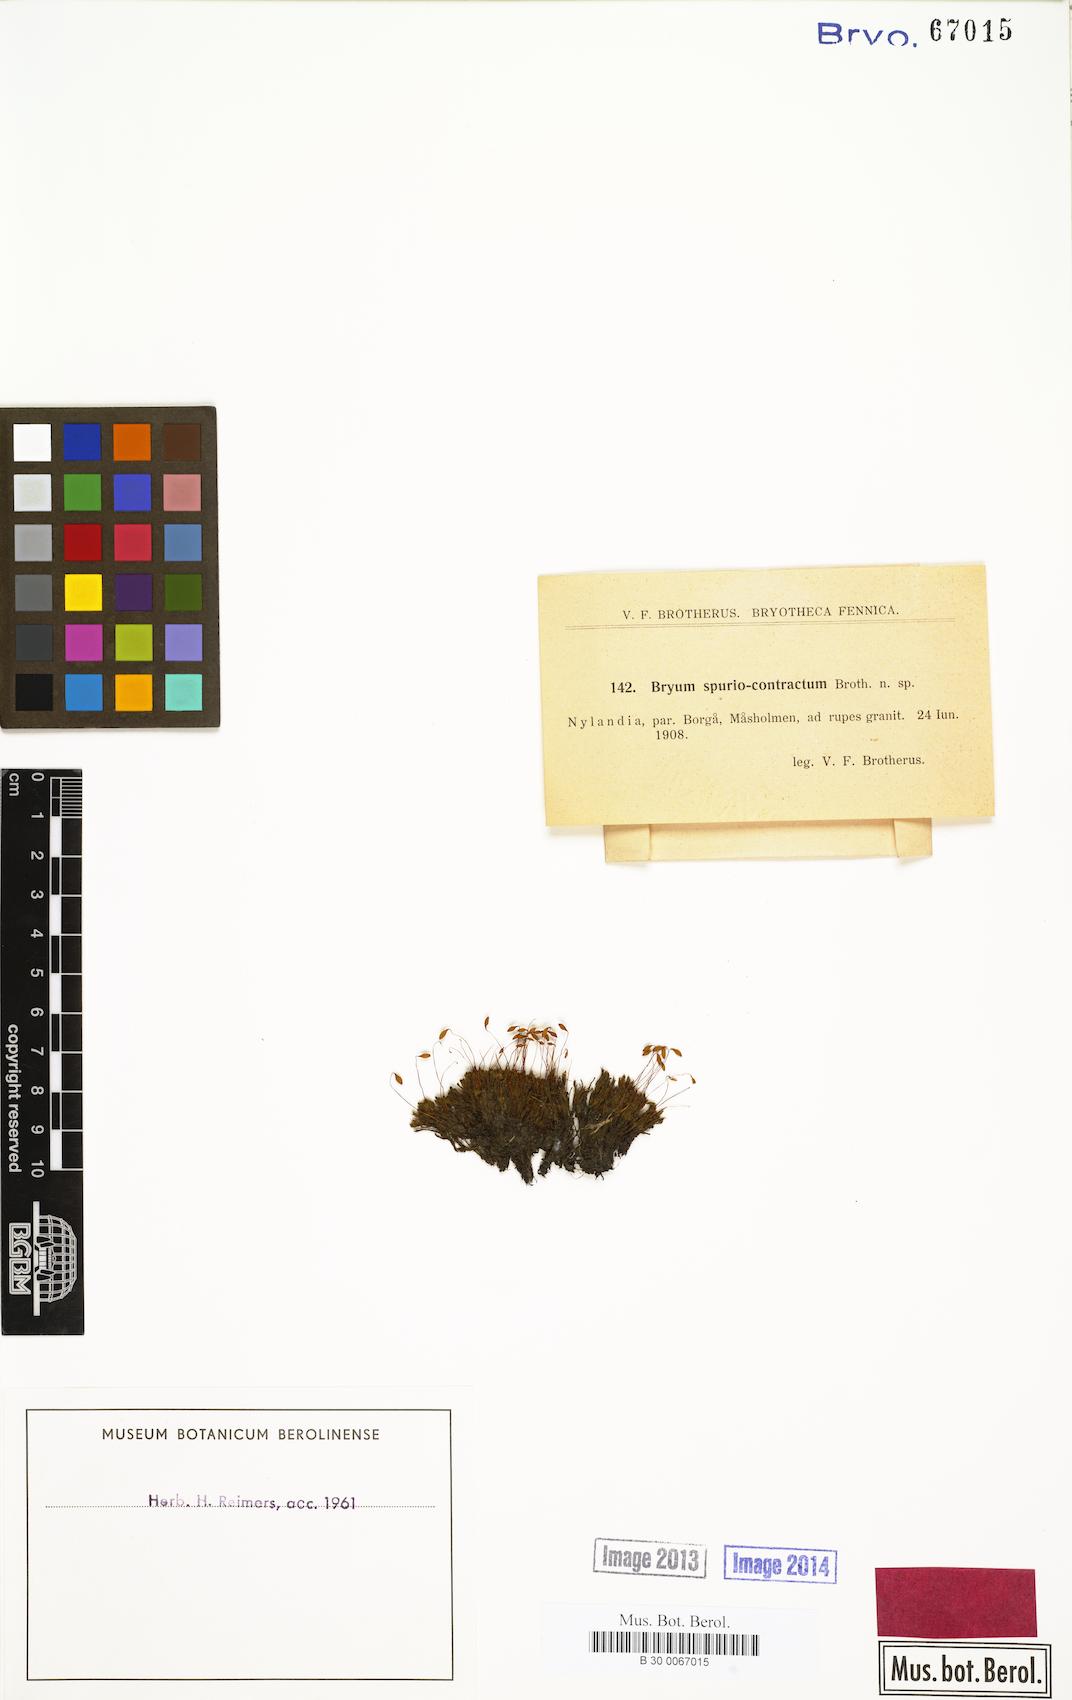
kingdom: Plantae
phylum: Bryophyta
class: Bryopsida
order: Bryales
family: Bryaceae
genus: Bryum
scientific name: Bryum
